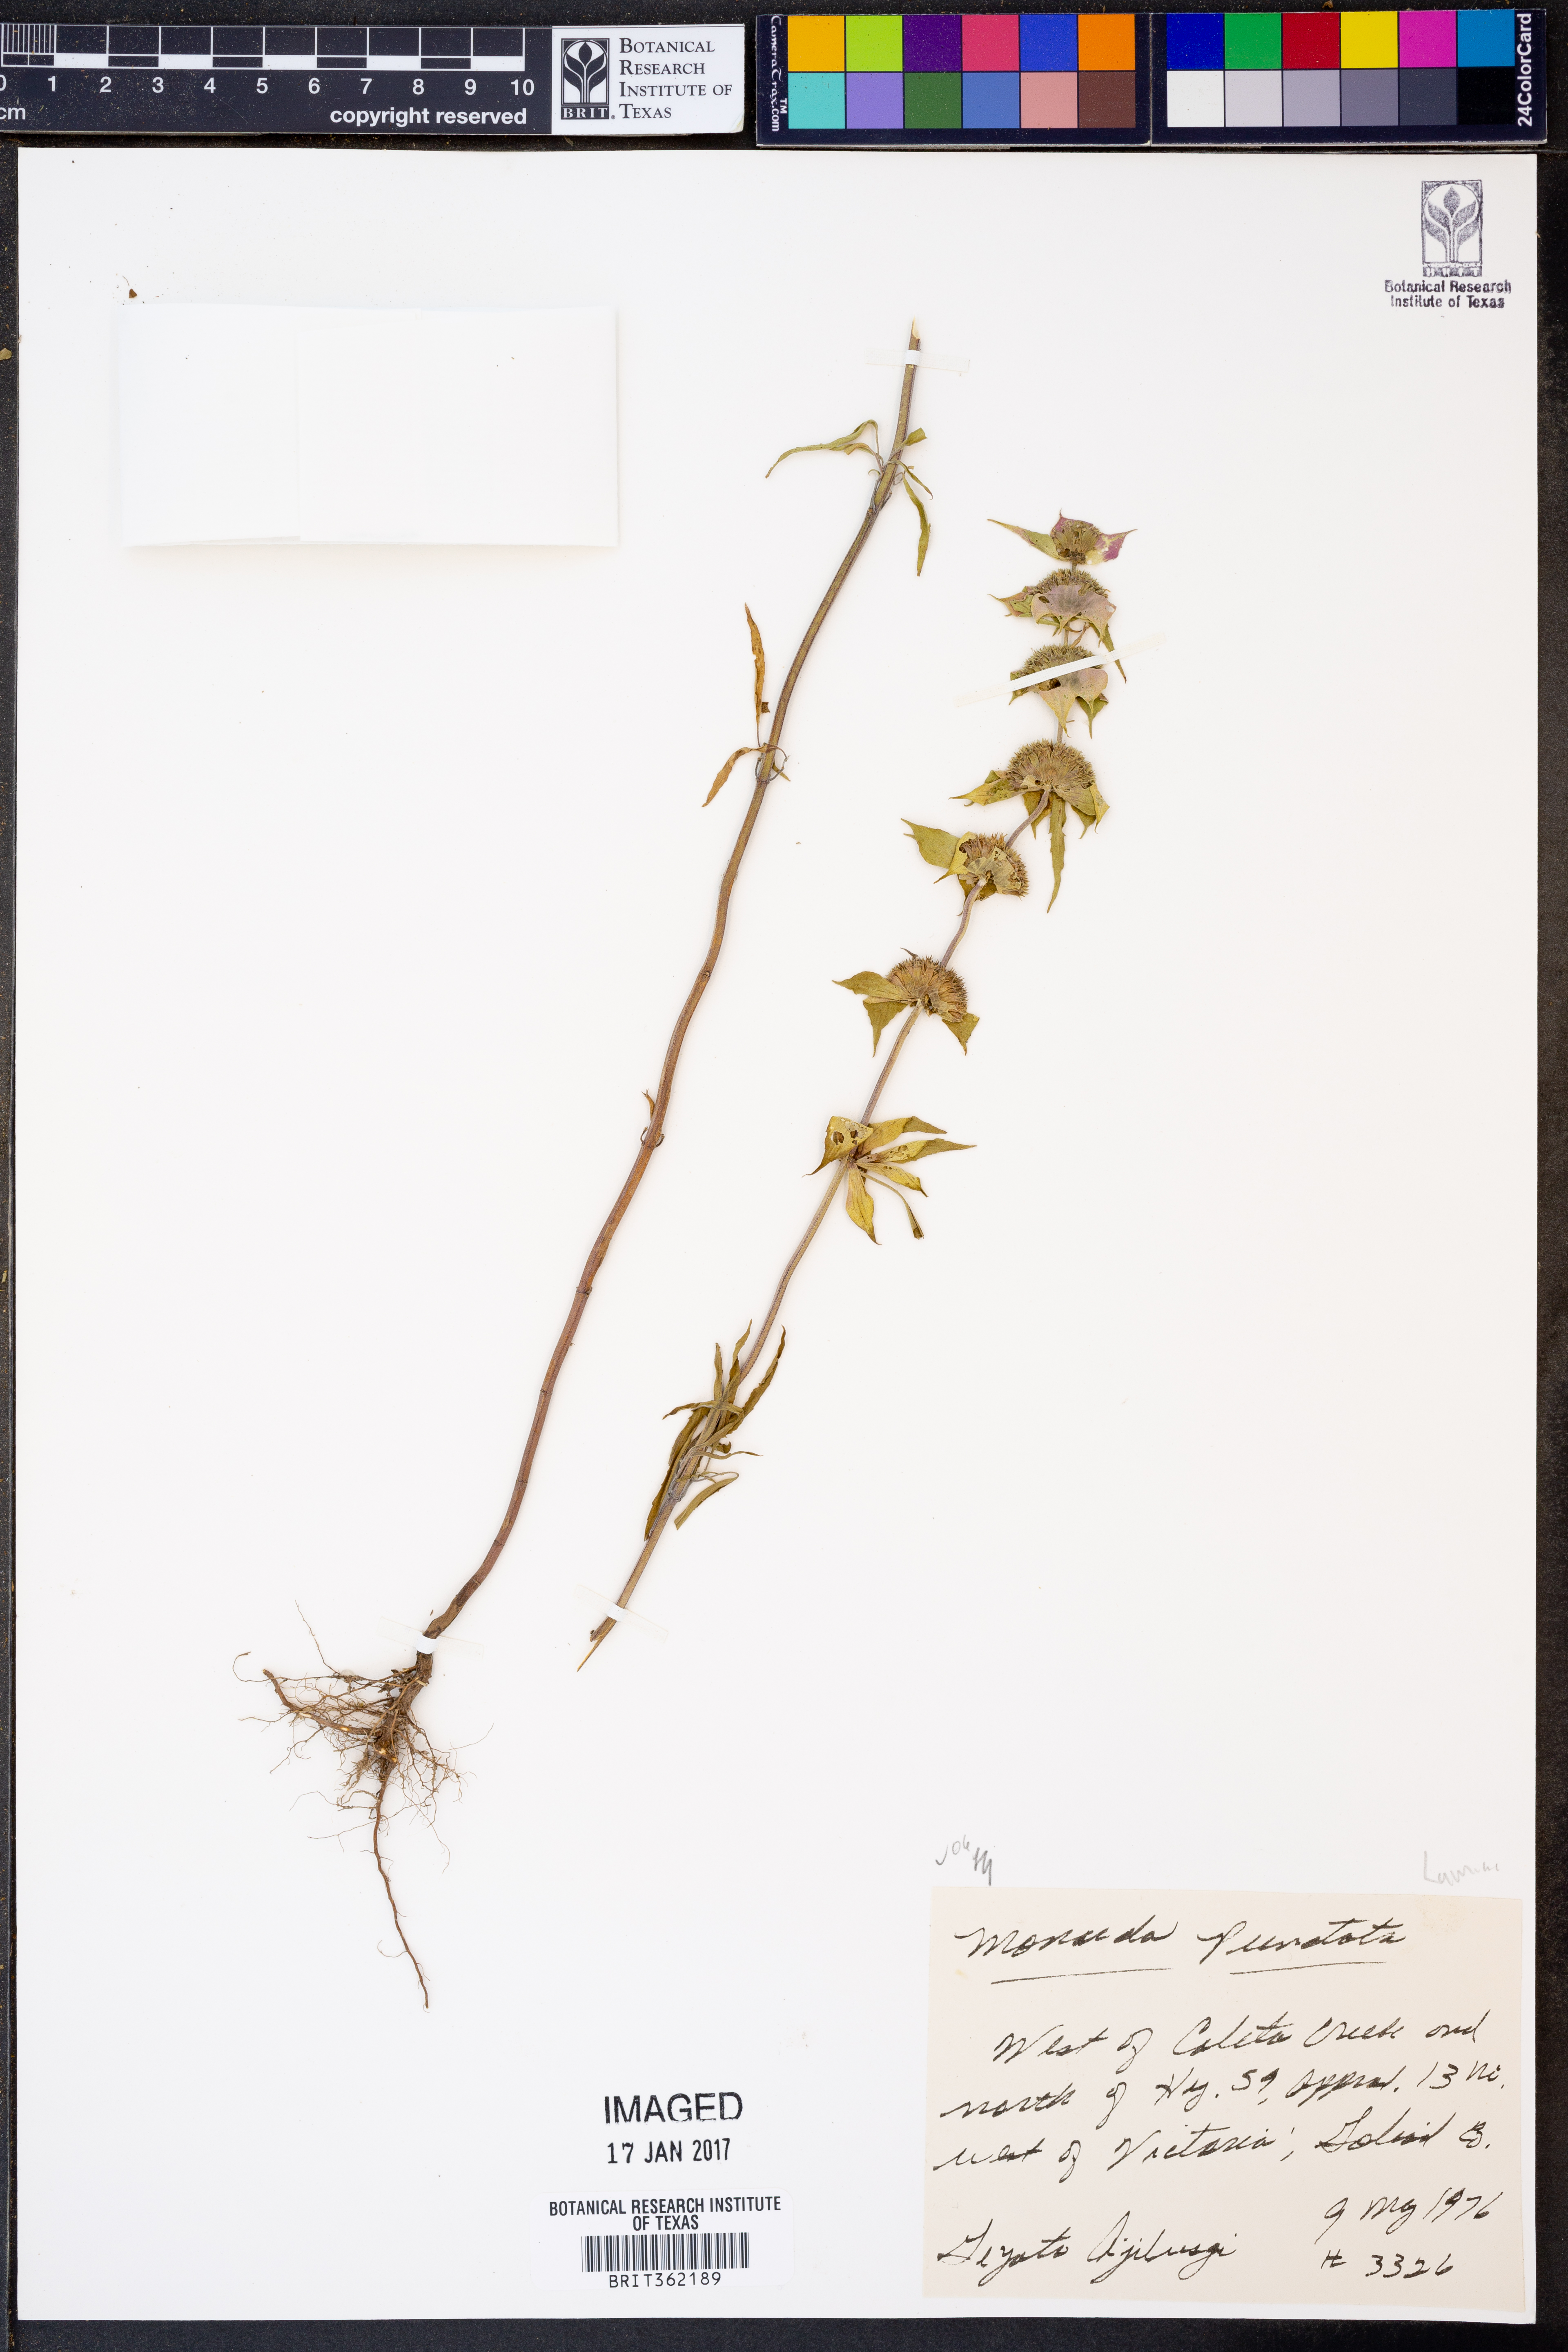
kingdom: Plantae
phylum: Tracheophyta
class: Magnoliopsida
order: Lamiales
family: Lamiaceae
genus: Monarda
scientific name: Monarda punctata
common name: Dotted monarda
